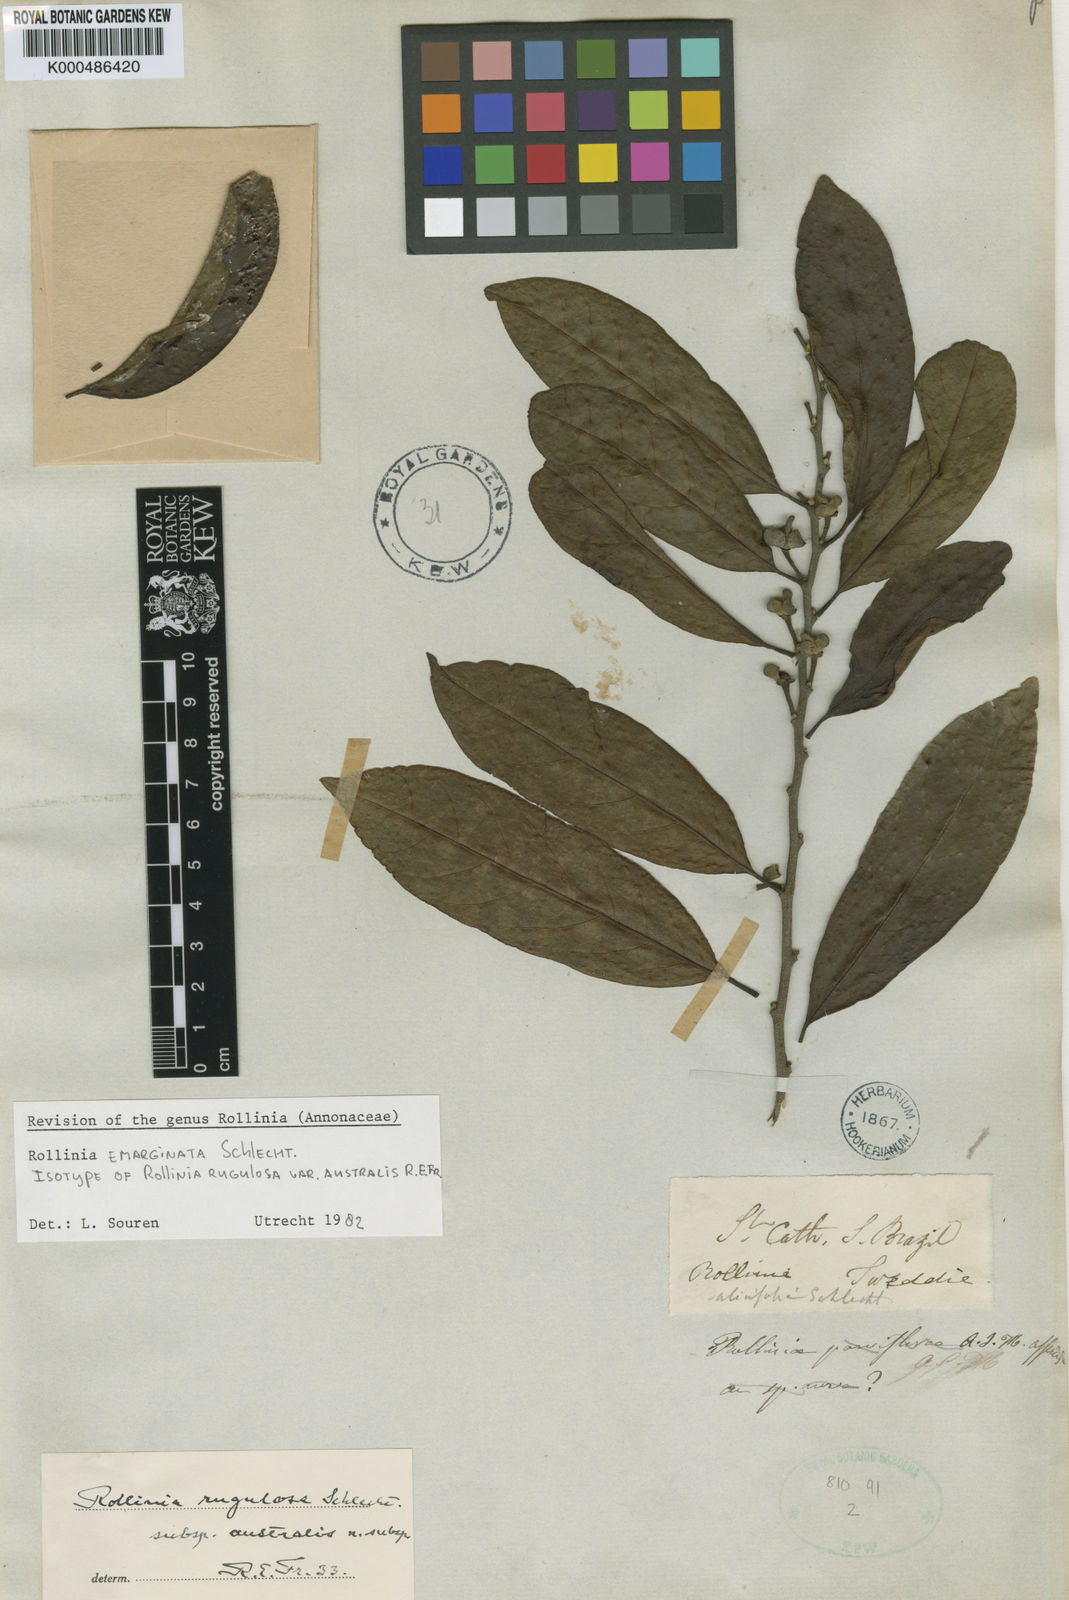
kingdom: Plantae
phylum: Tracheophyta
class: Magnoliopsida
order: Magnoliales
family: Annonaceae
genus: Annona
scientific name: Annona emarginata
